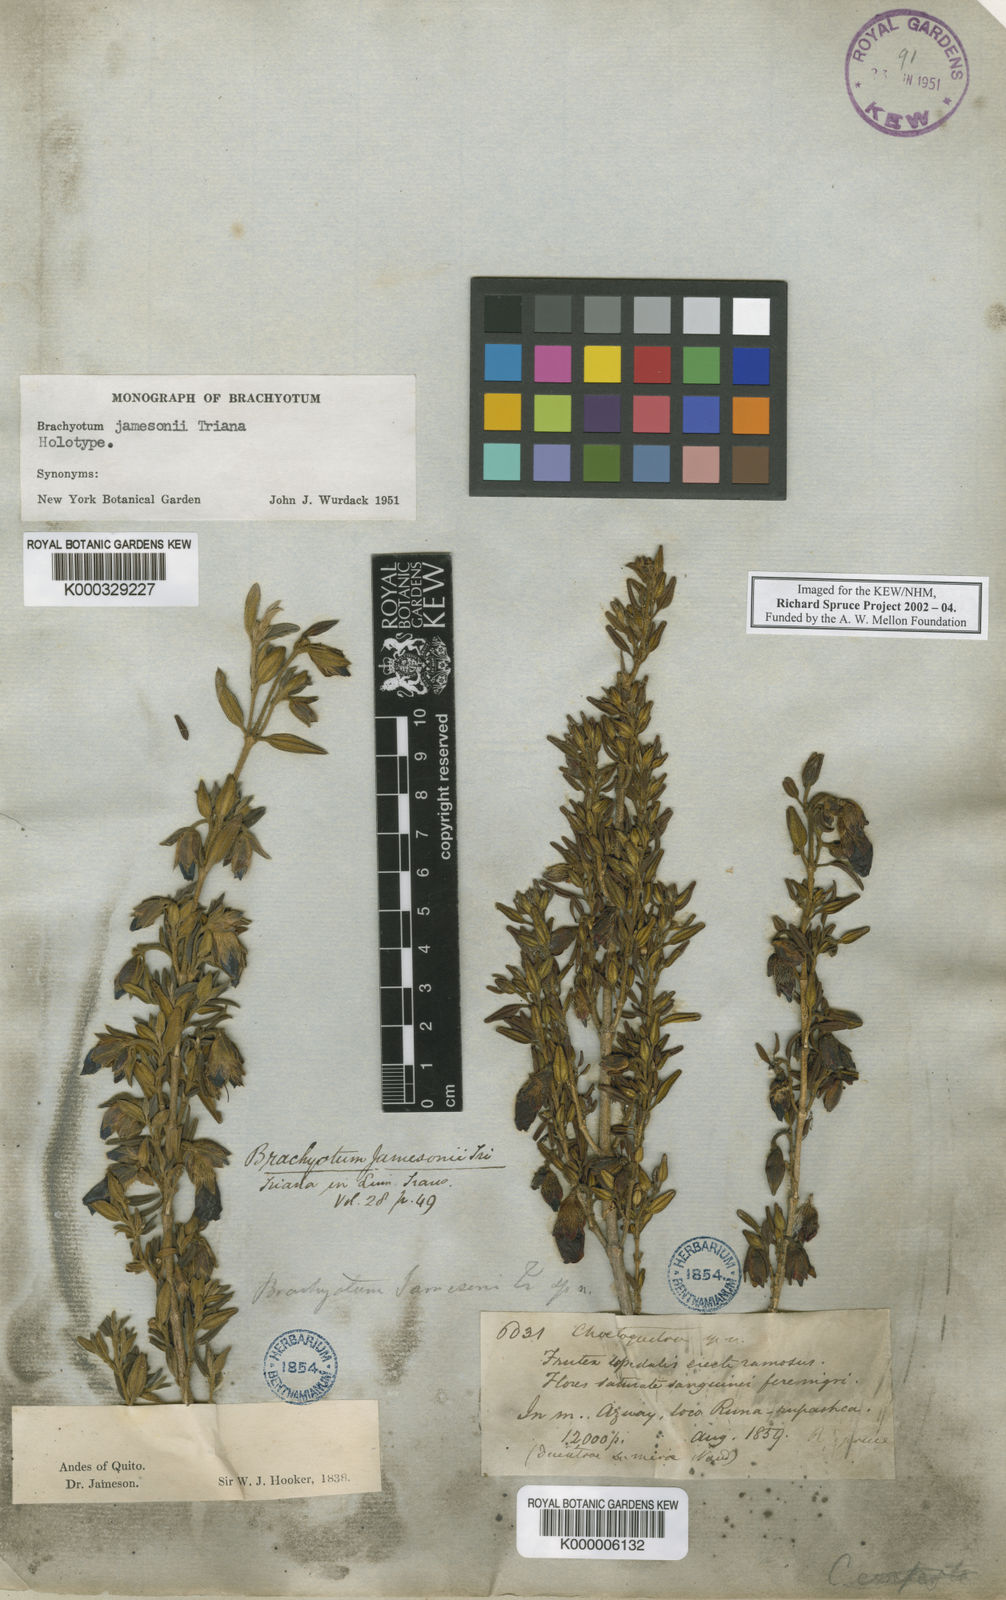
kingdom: Plantae
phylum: Tracheophyta
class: Magnoliopsida
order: Myrtales
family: Melastomataceae
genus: Brachyotum
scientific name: Brachyotum jamesonii
